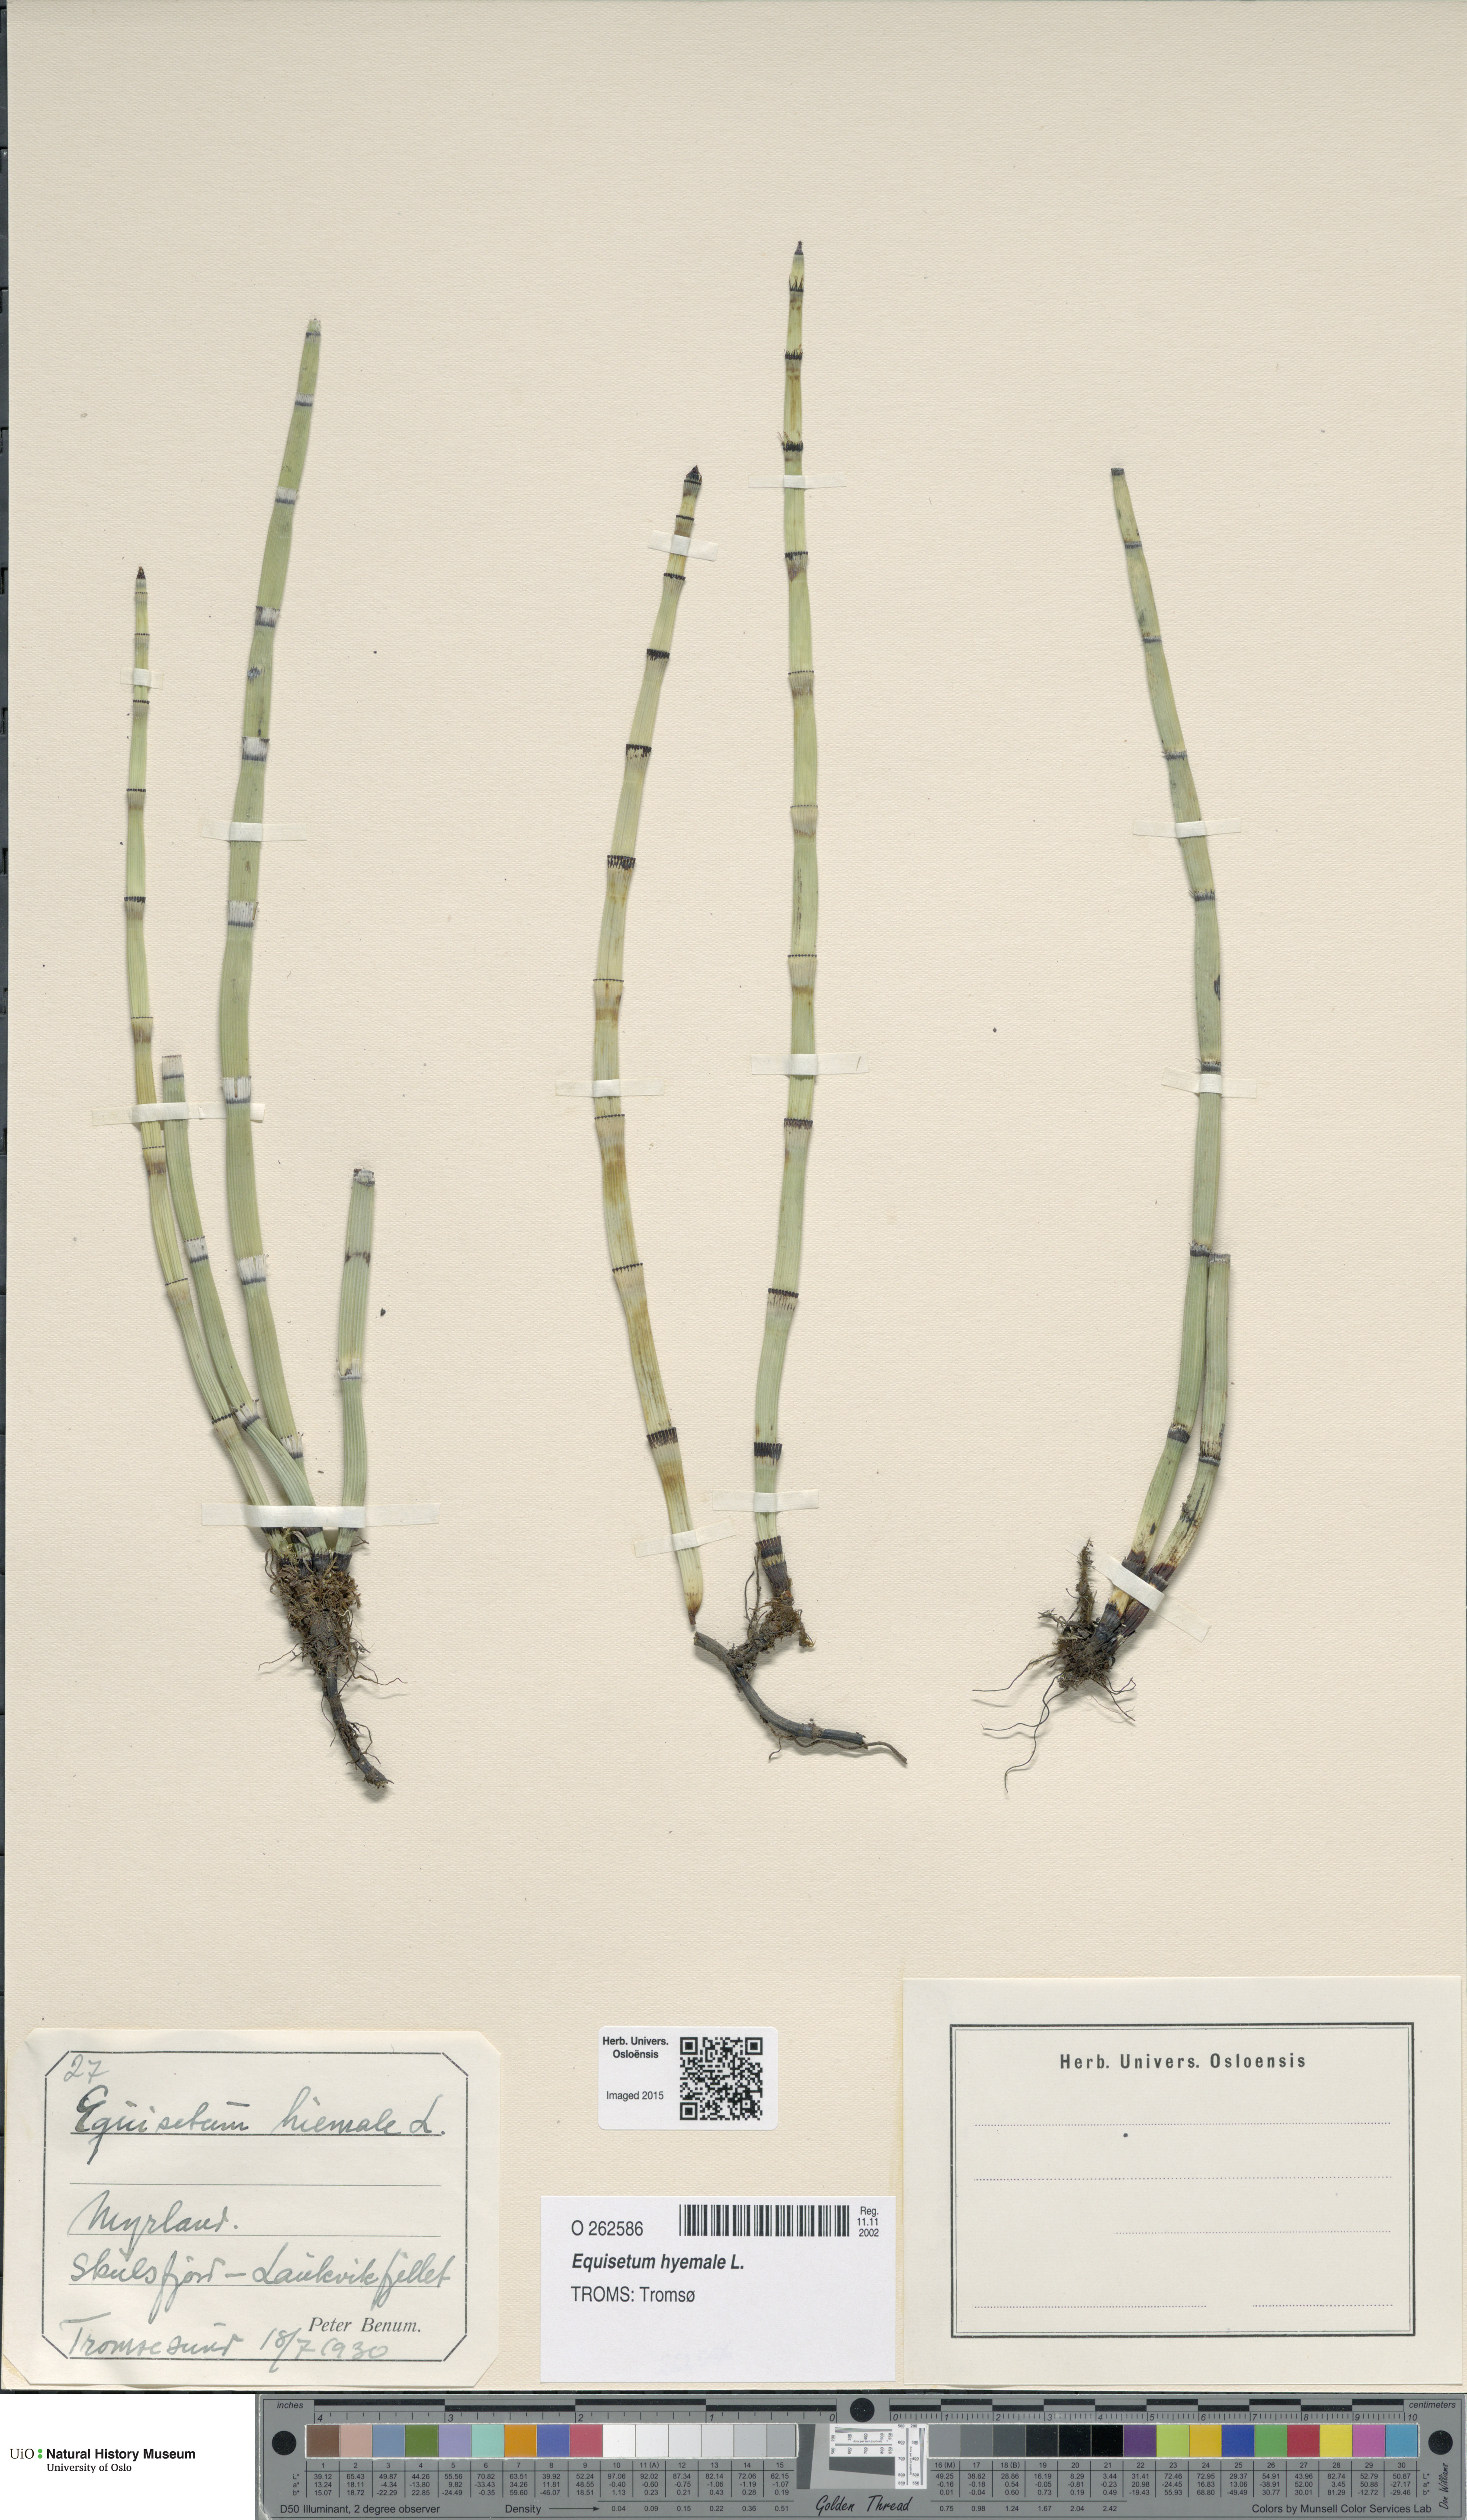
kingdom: Plantae
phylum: Tracheophyta
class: Polypodiopsida
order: Equisetales
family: Equisetaceae
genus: Equisetum
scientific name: Equisetum hyemale
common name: Rough horsetail
